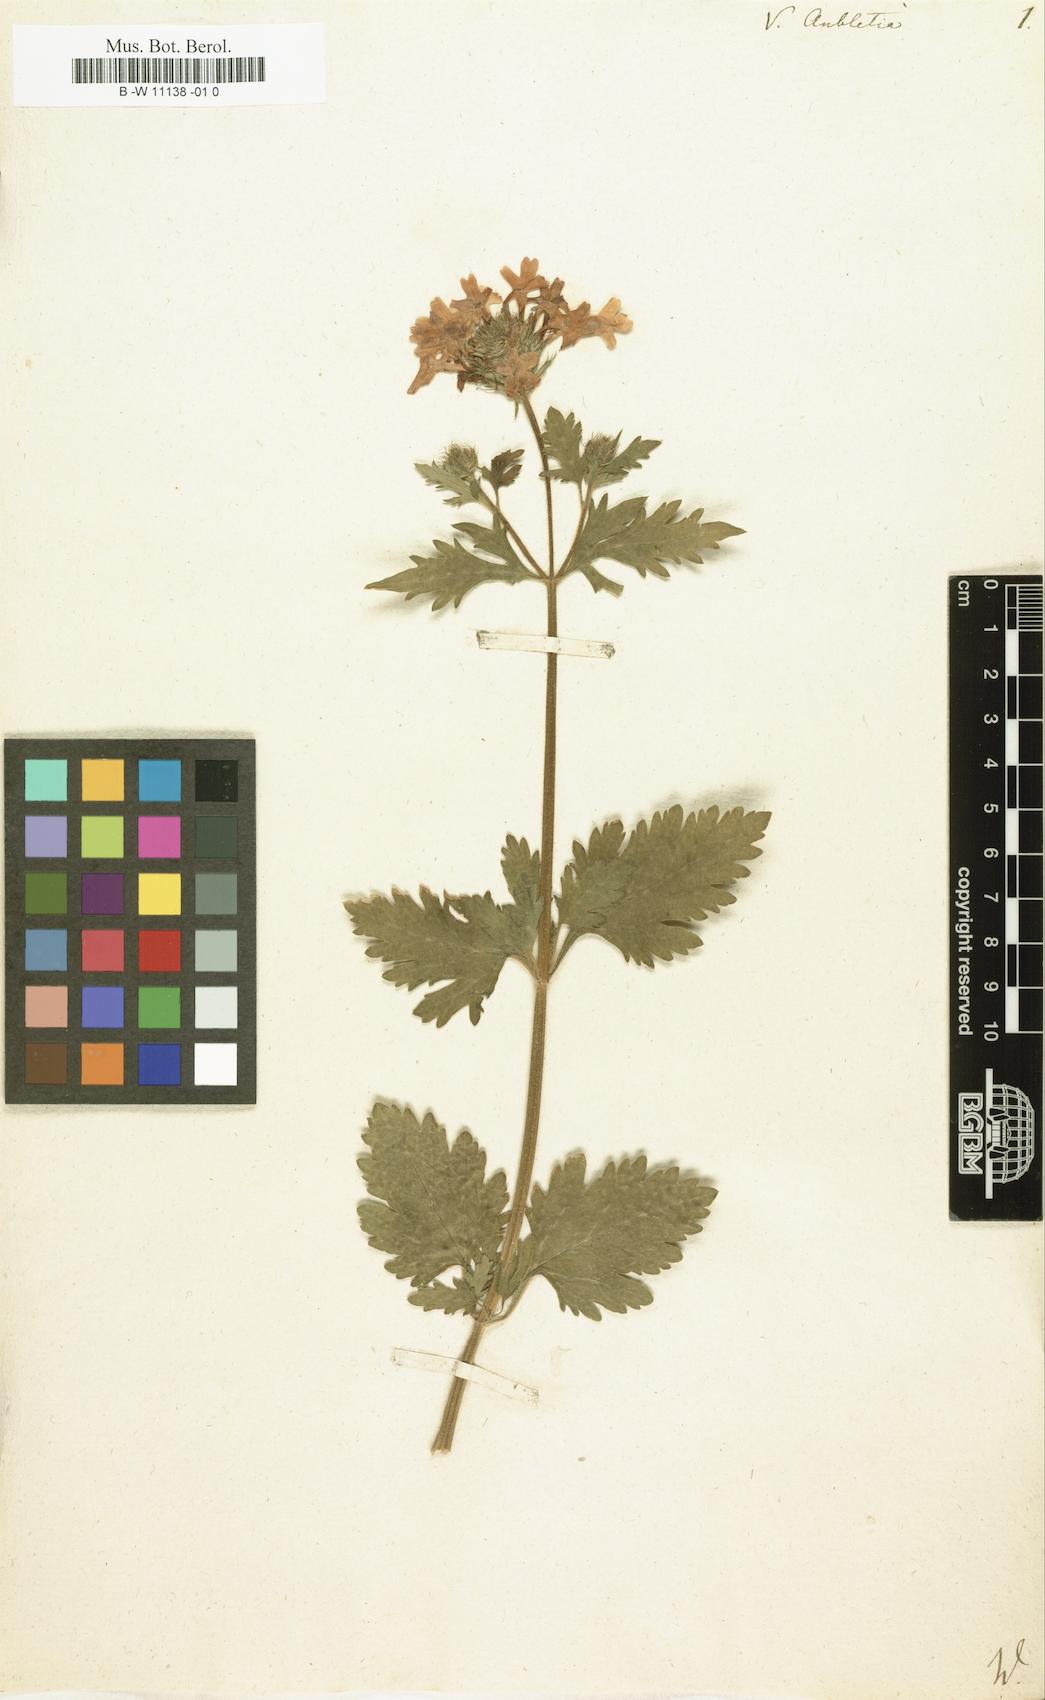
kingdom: Plantae
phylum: Tracheophyta
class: Magnoliopsida
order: Lamiales
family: Verbenaceae
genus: Verbena
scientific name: Verbena canadensis
